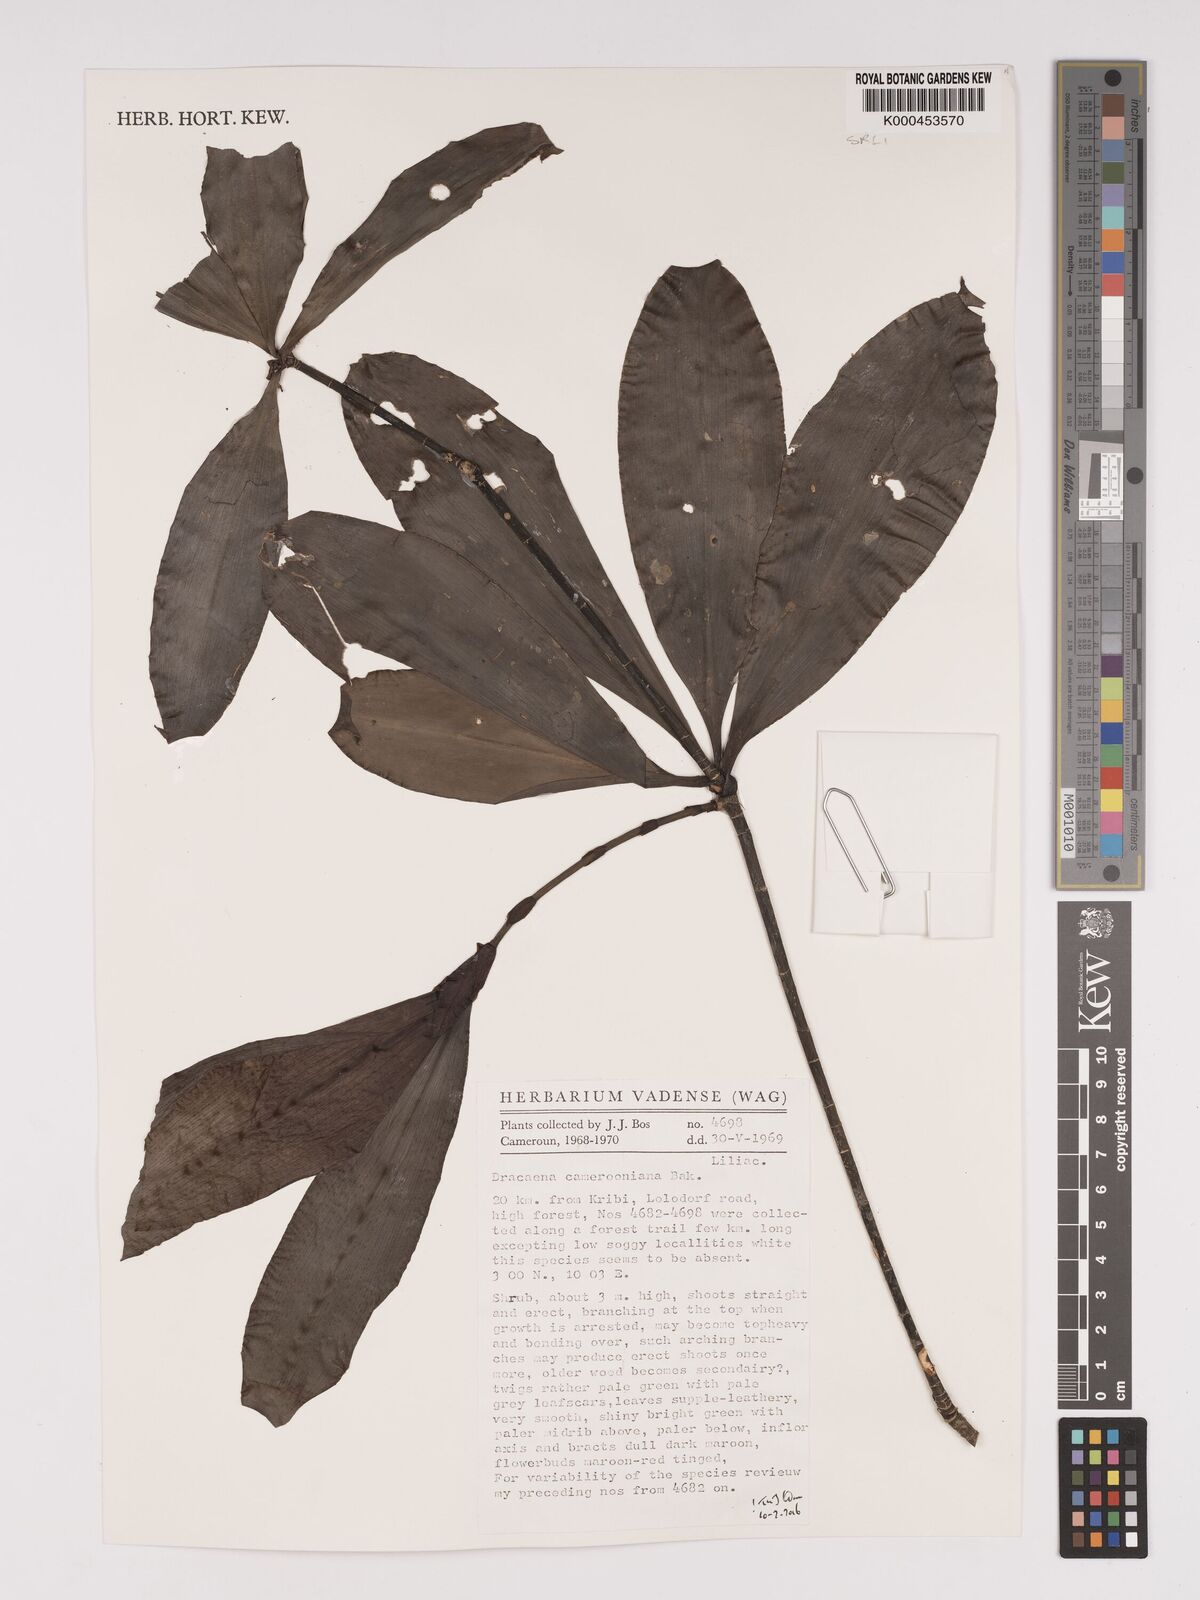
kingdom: Plantae
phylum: Tracheophyta
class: Liliopsida
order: Asparagales
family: Asparagaceae
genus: Dracaena
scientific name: Dracaena camerooniana
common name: Dragon tree
